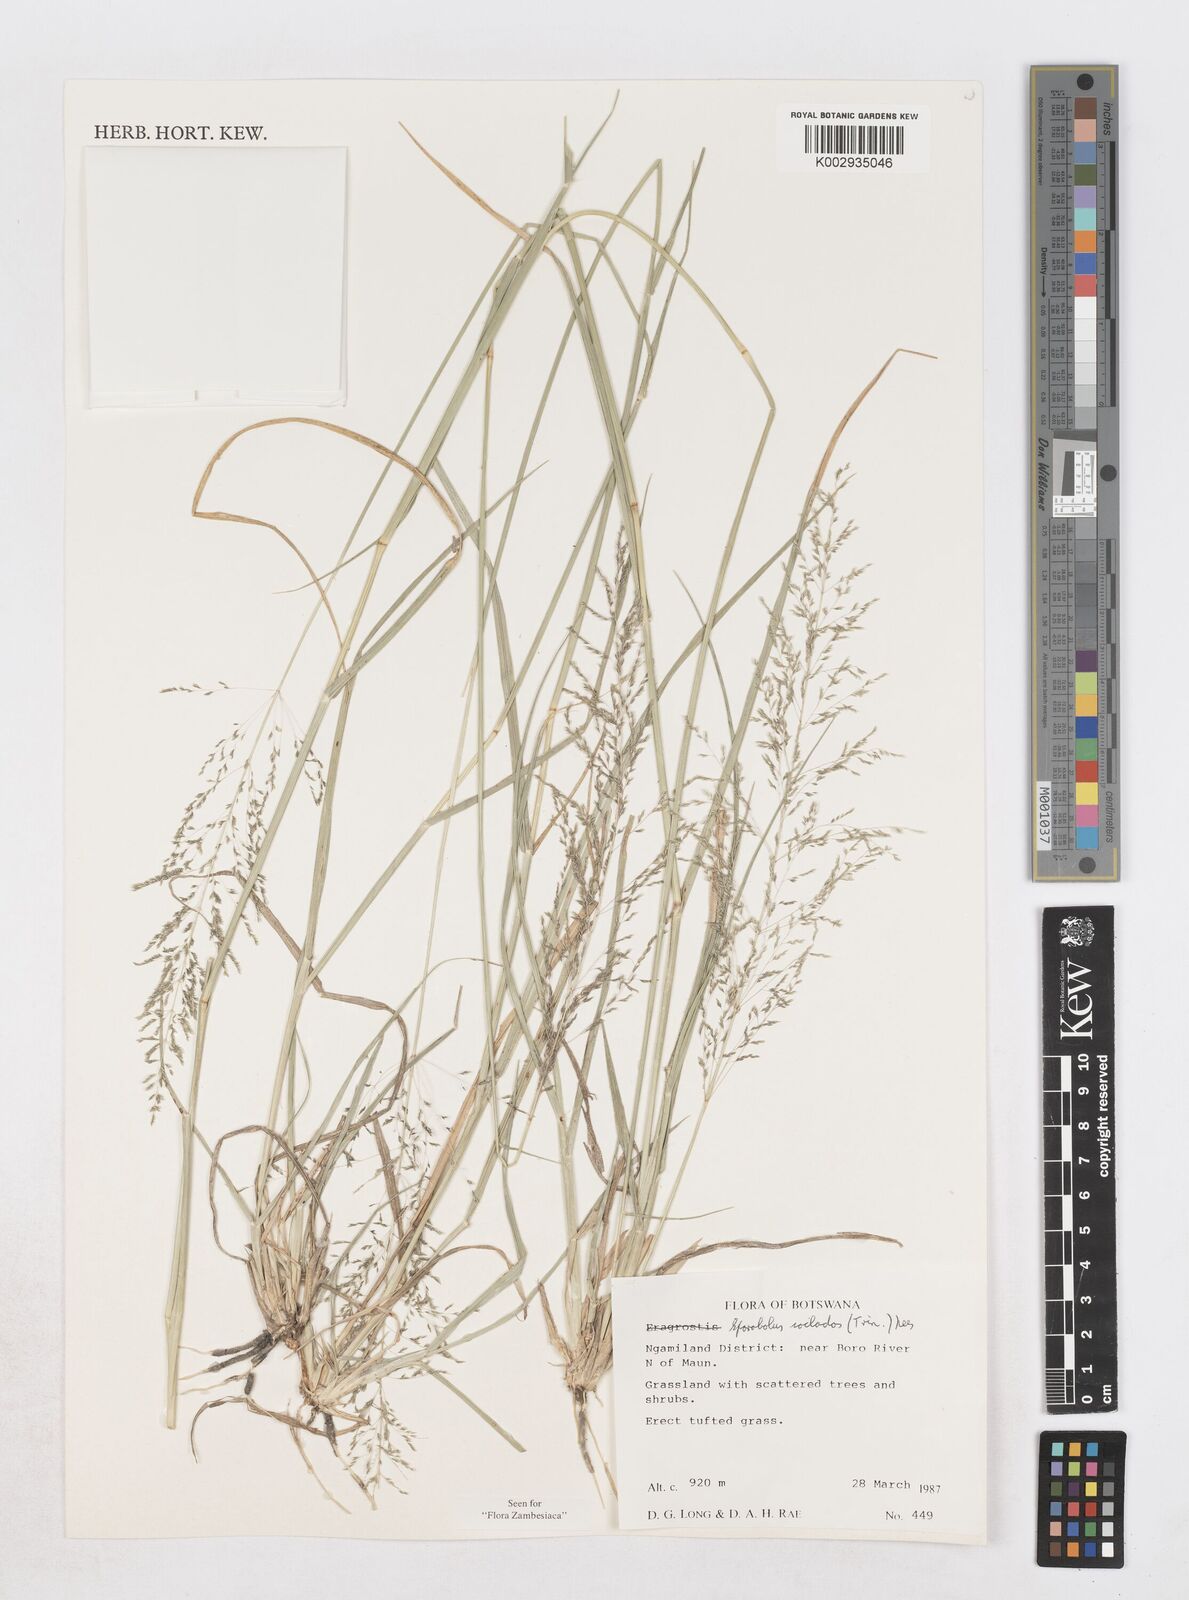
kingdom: Plantae
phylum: Tracheophyta
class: Liliopsida
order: Poales
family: Poaceae
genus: Sporobolus
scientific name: Sporobolus ioclados
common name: Pan dropseed
